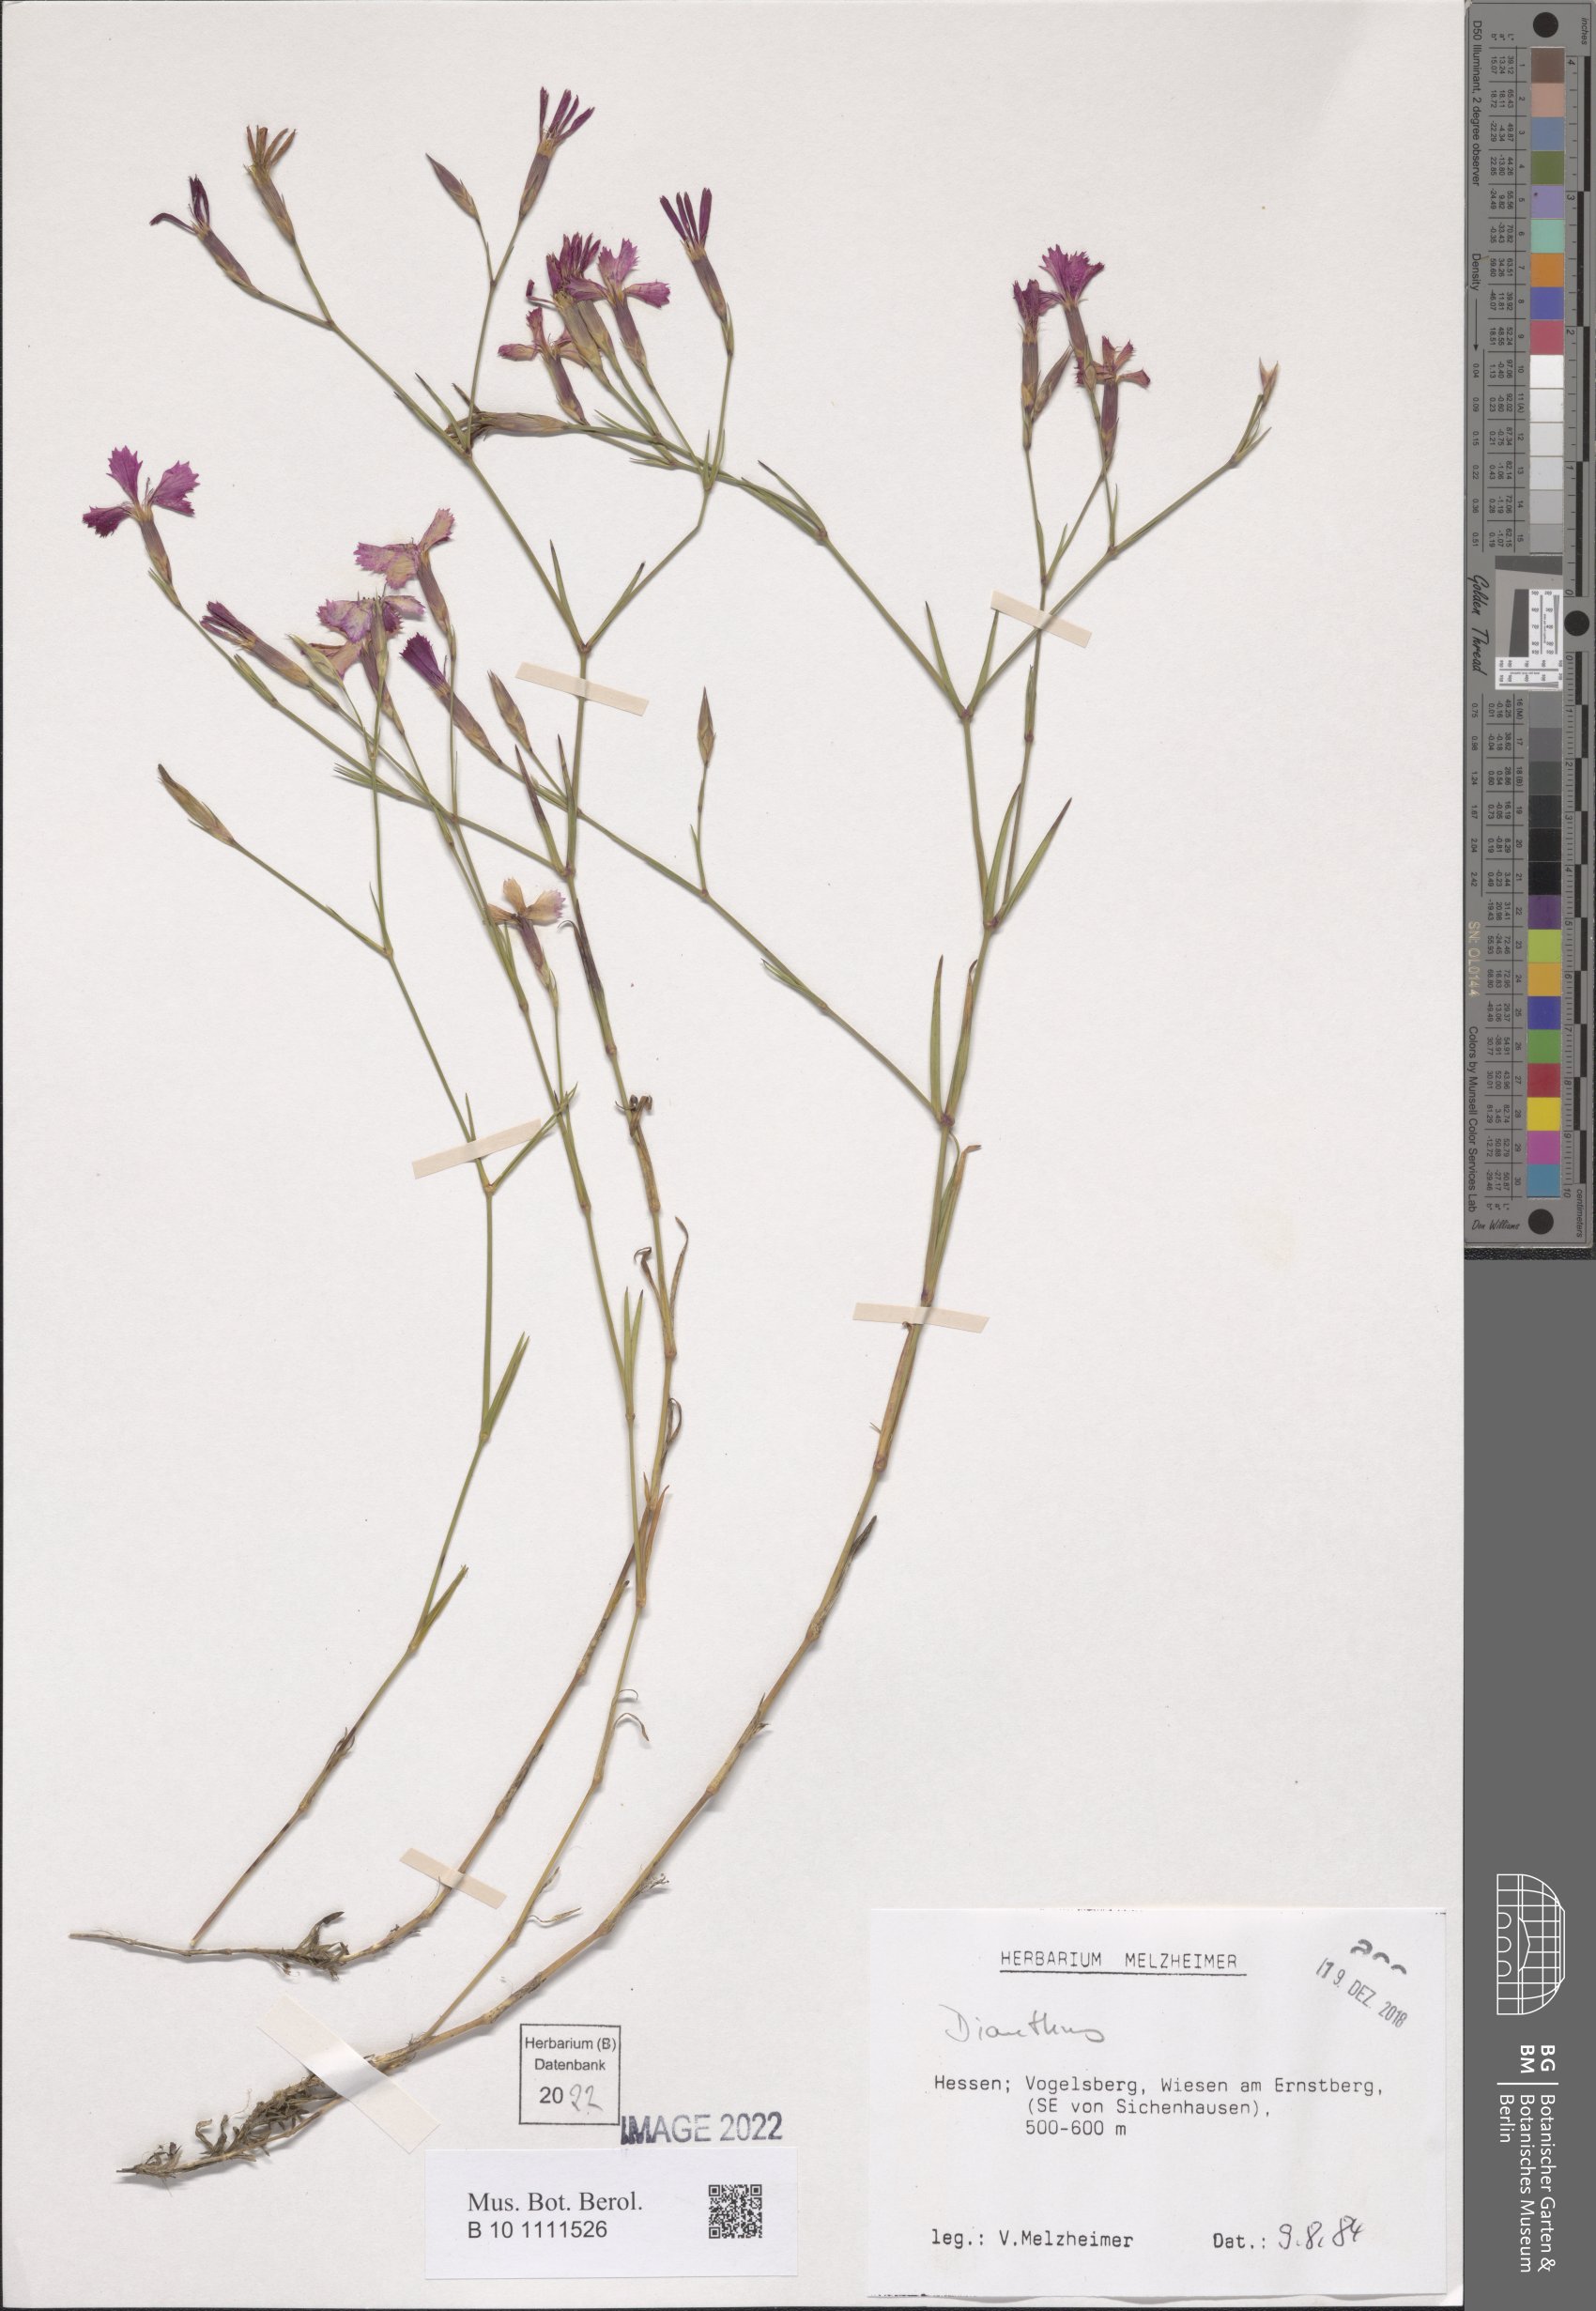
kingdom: Plantae
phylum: Tracheophyta
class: Magnoliopsida
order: Caryophyllales
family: Caryophyllaceae
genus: Dianthus
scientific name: Dianthus deltoides
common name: Maiden pink
